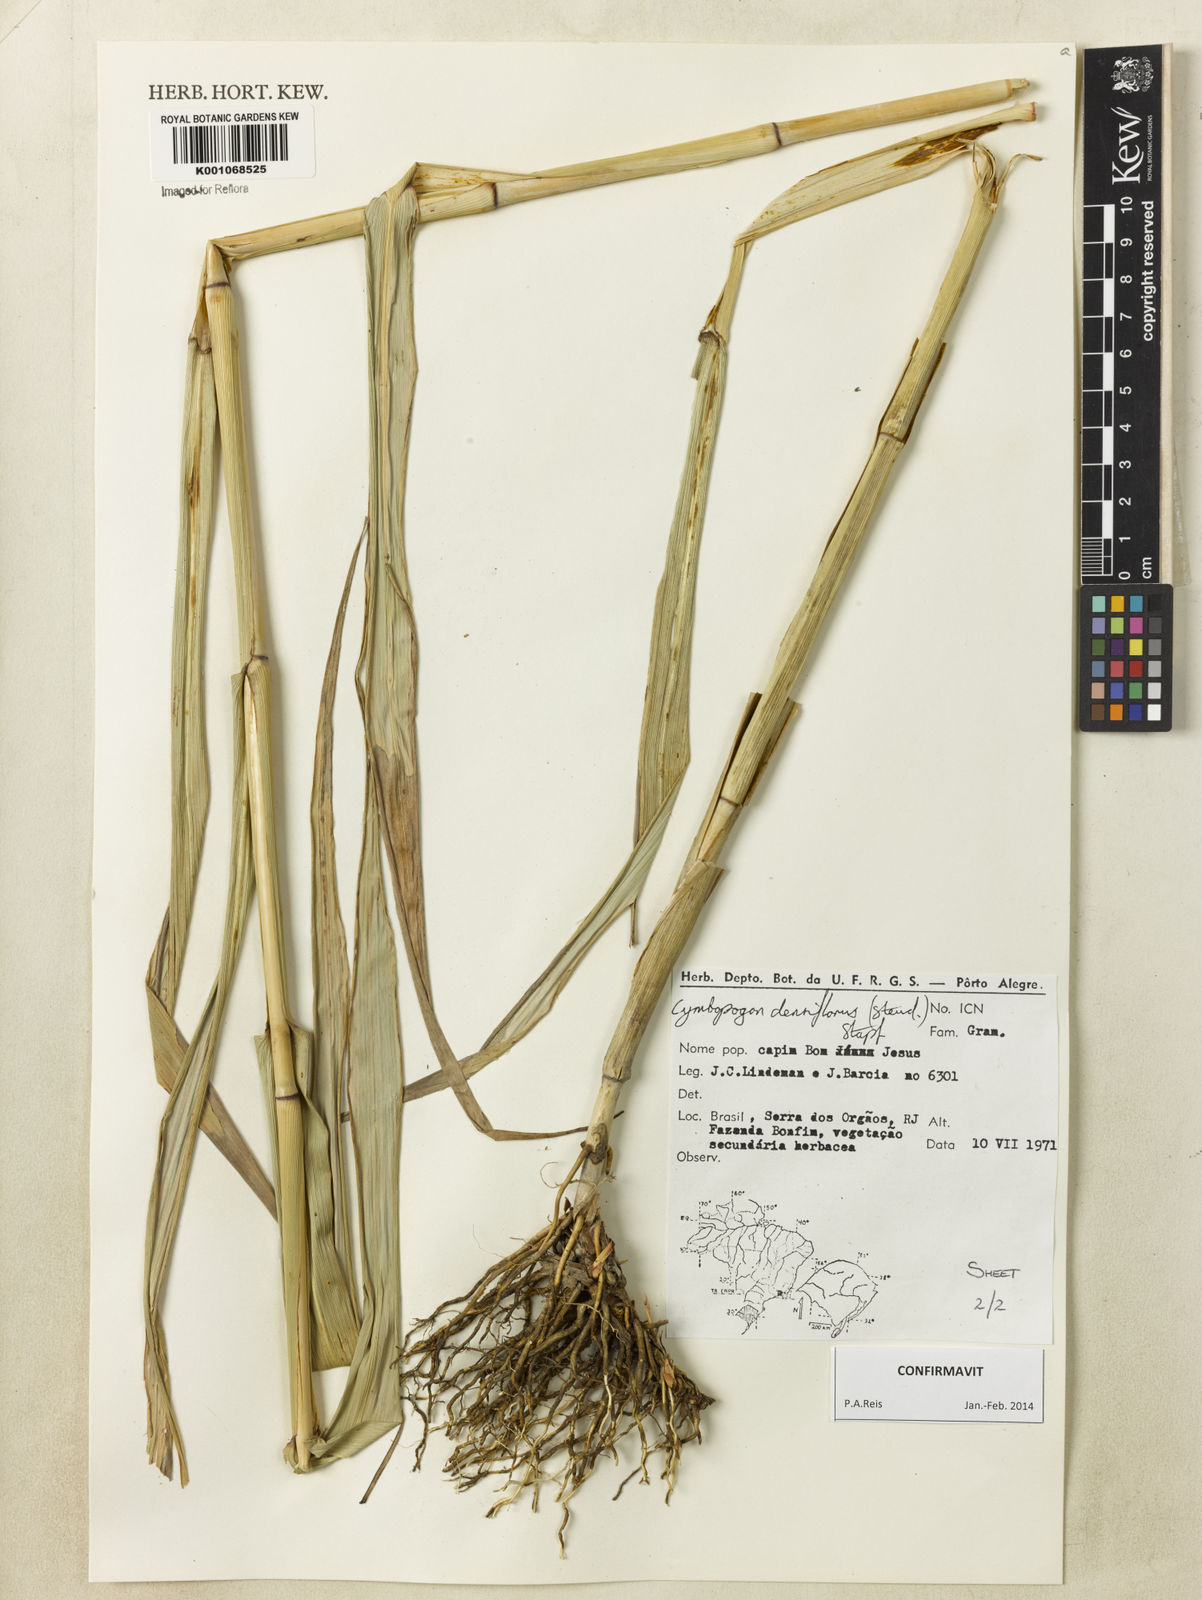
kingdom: Plantae
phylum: Tracheophyta
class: Liliopsida
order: Poales
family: Poaceae
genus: Cymbopogon
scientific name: Cymbopogon densiflorus
